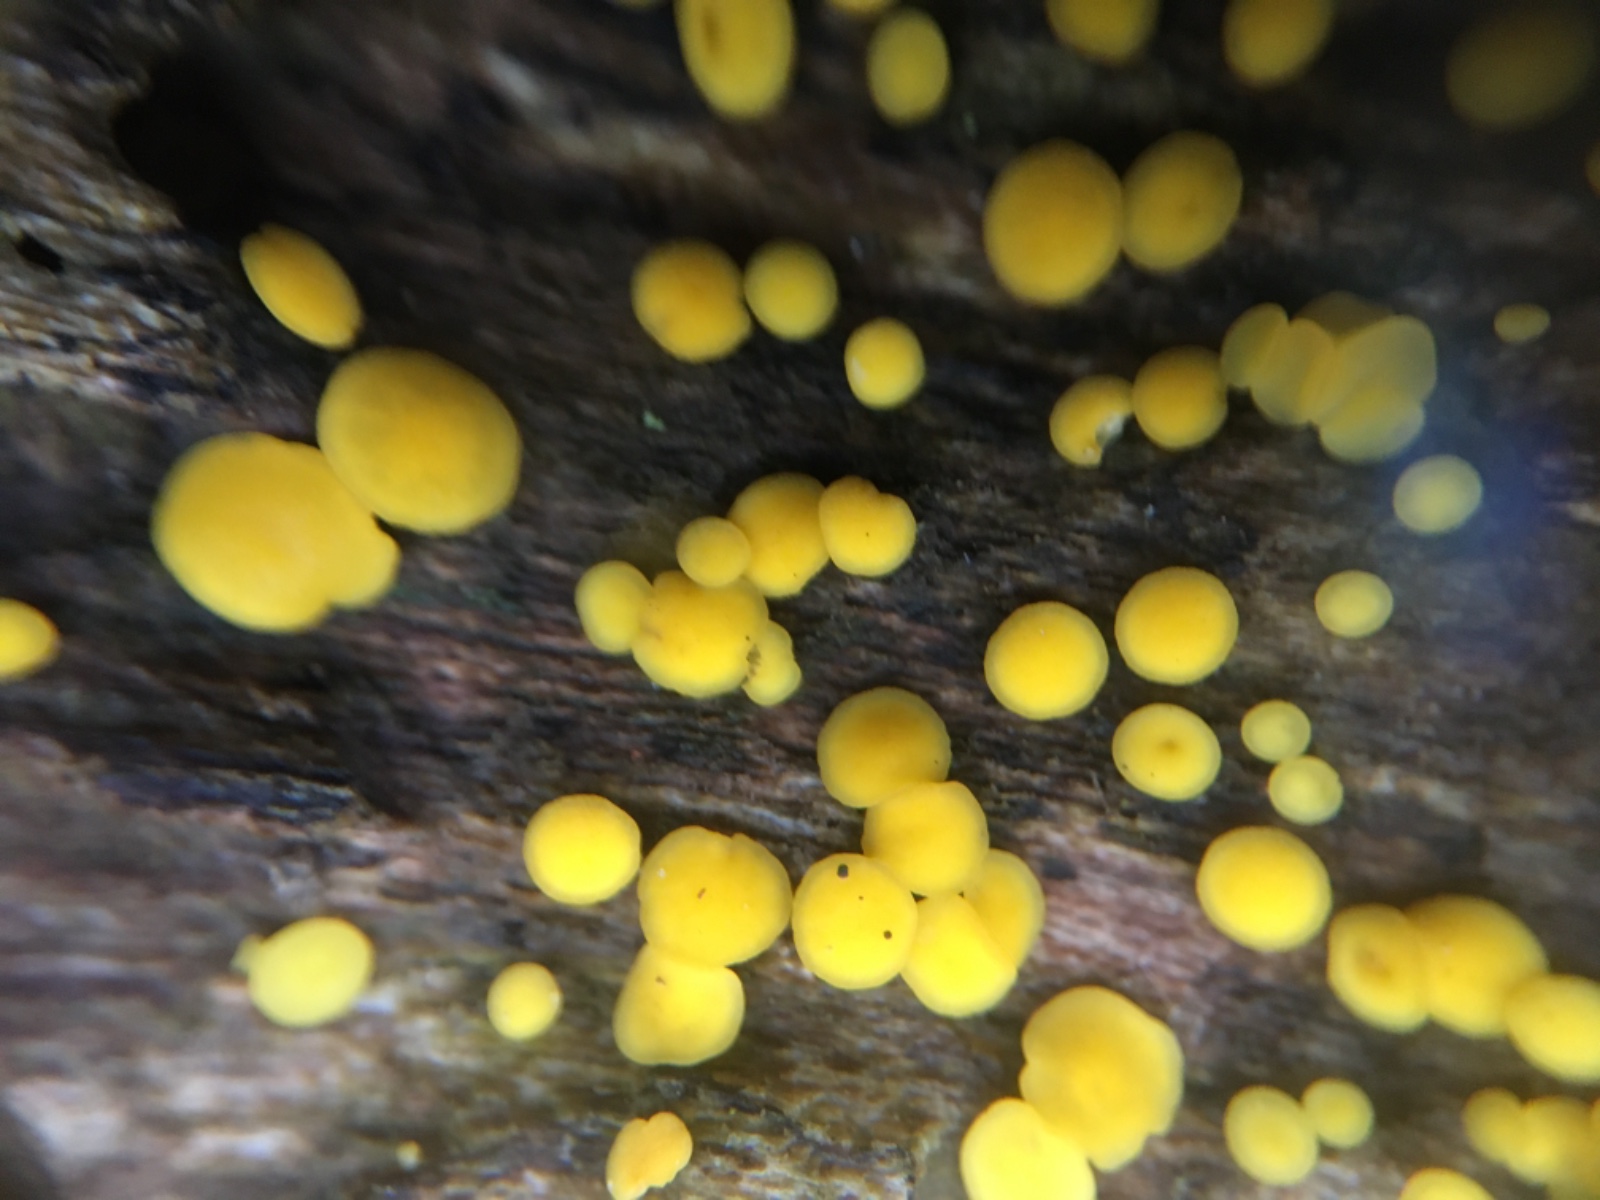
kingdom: Fungi
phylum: Ascomycota
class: Leotiomycetes
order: Helotiales
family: Pezizellaceae
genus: Calycina
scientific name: Calycina citrina
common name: almindelig gulskive
